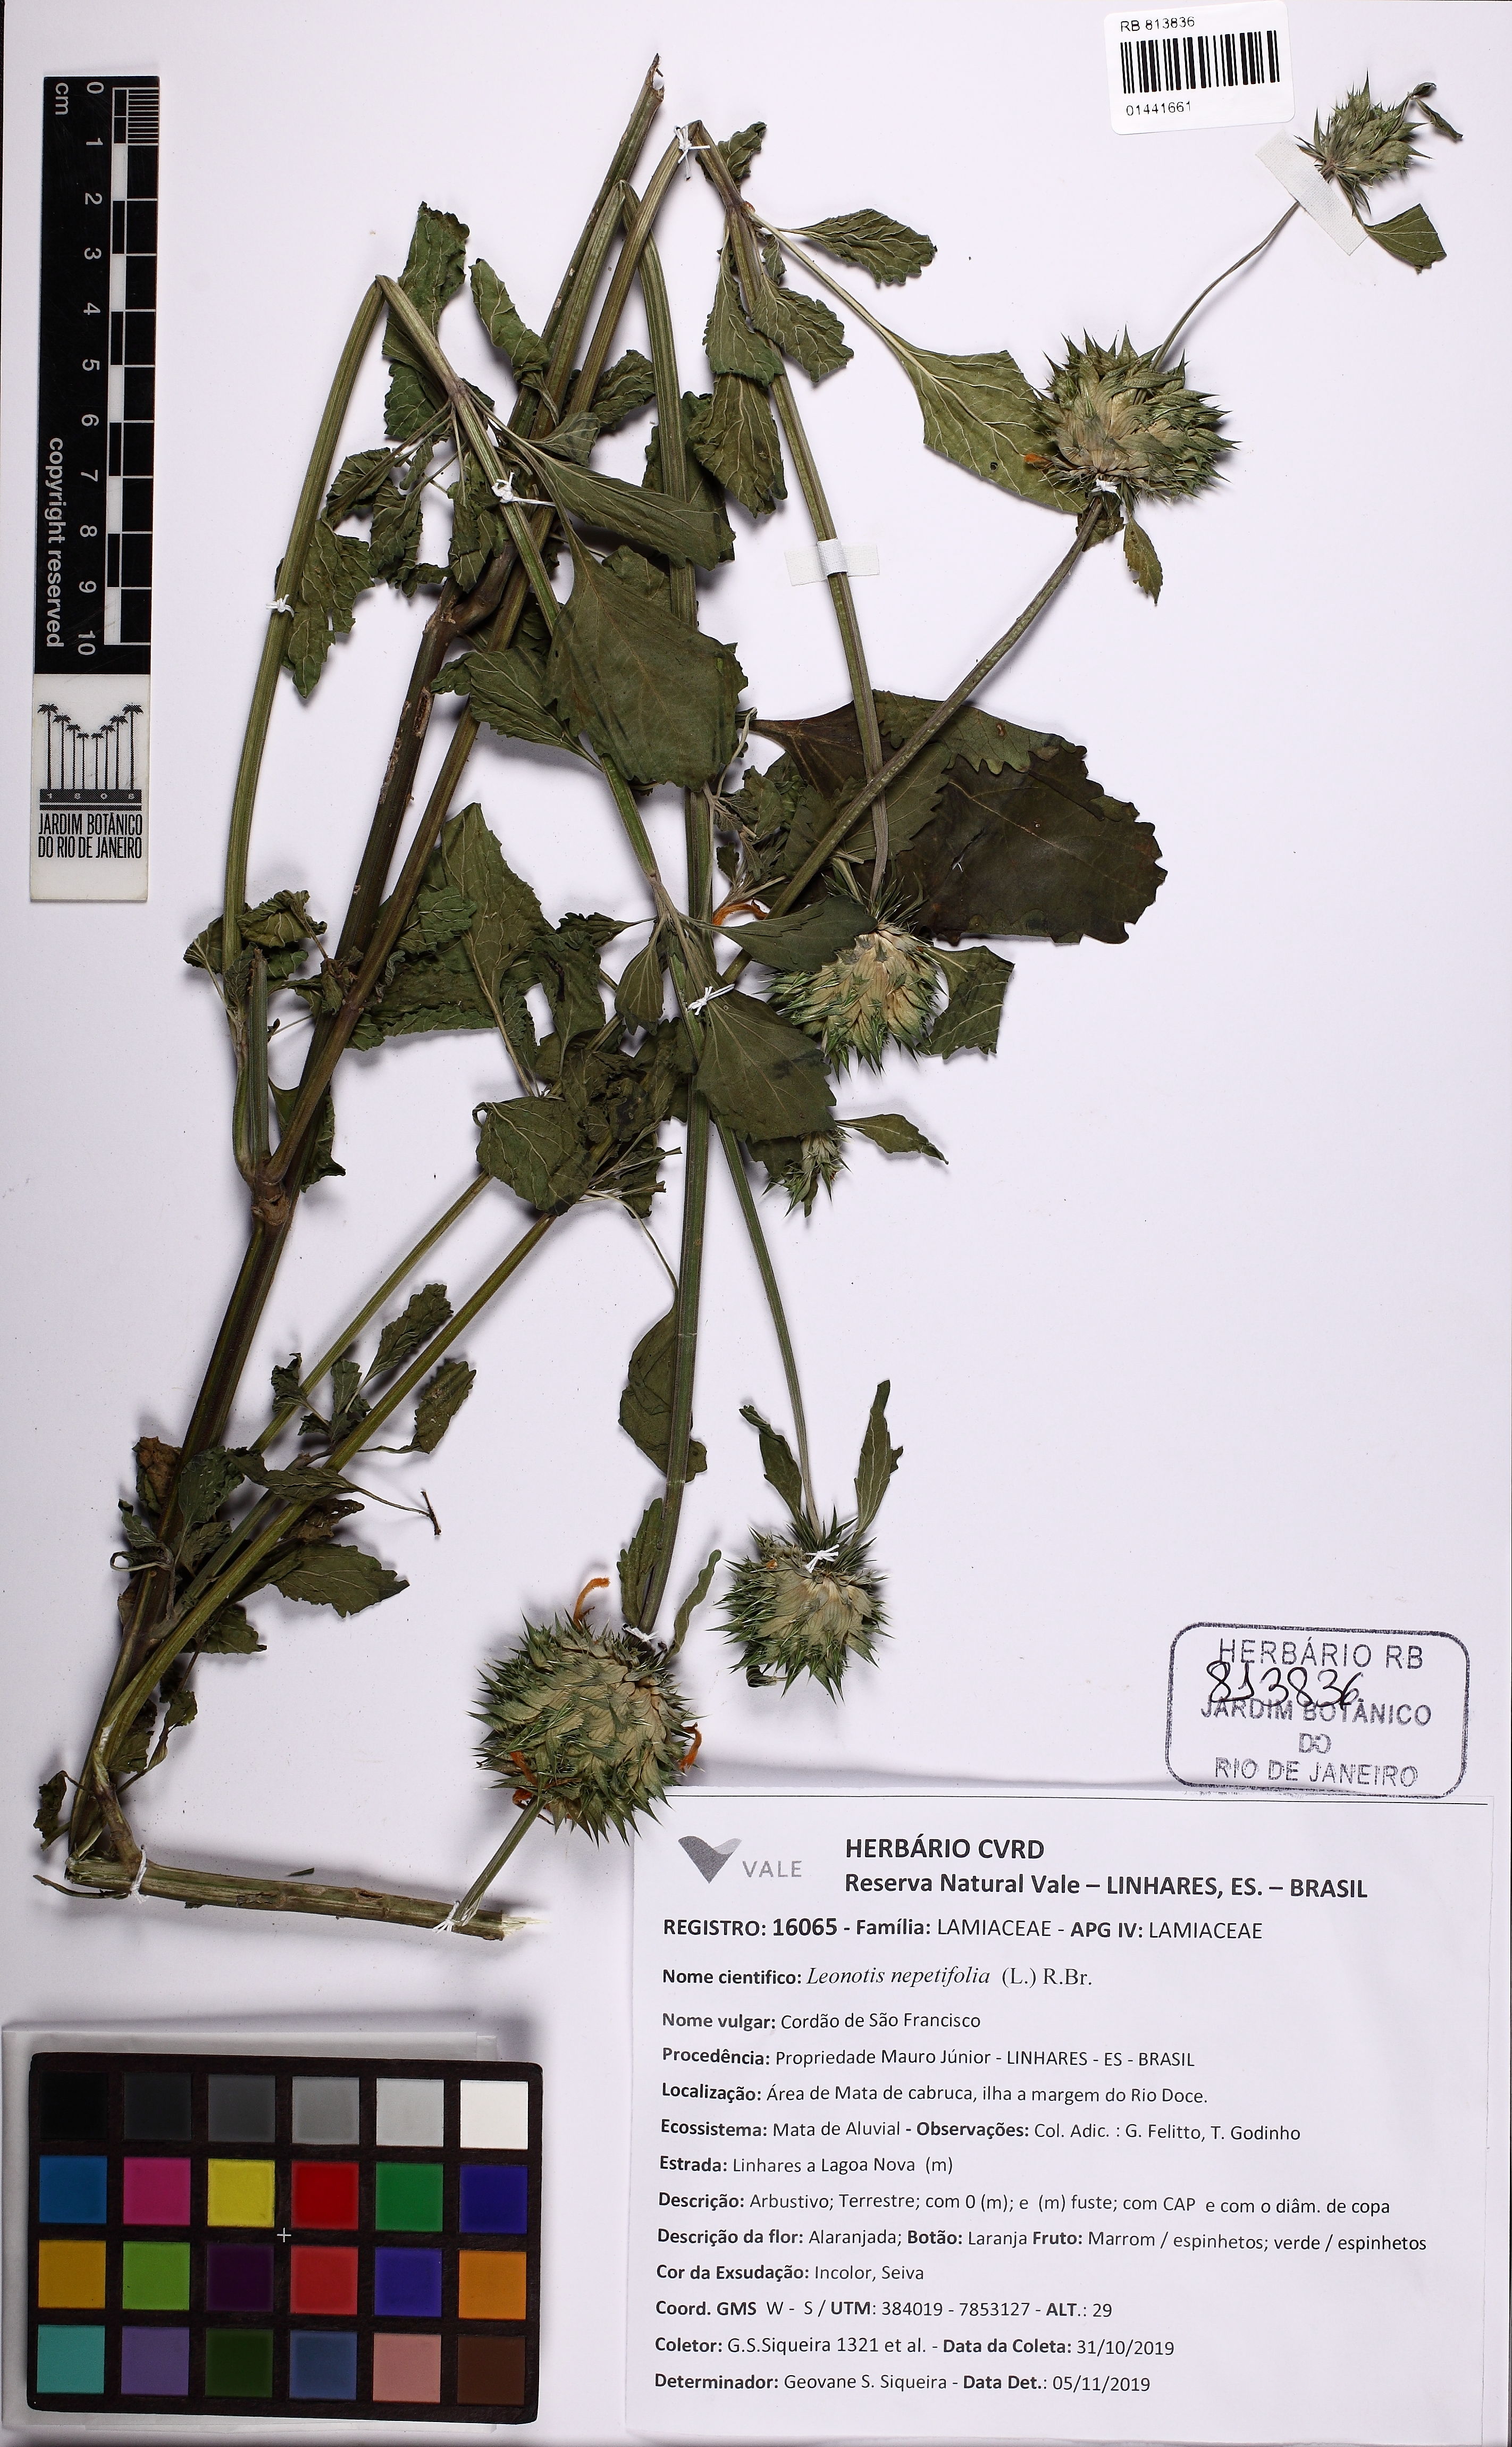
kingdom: Plantae
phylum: Tracheophyta
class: Magnoliopsida
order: Lamiales
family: Lamiaceae
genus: Leonotis
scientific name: Leonotis nepetifolia
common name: Christmas candlestick
